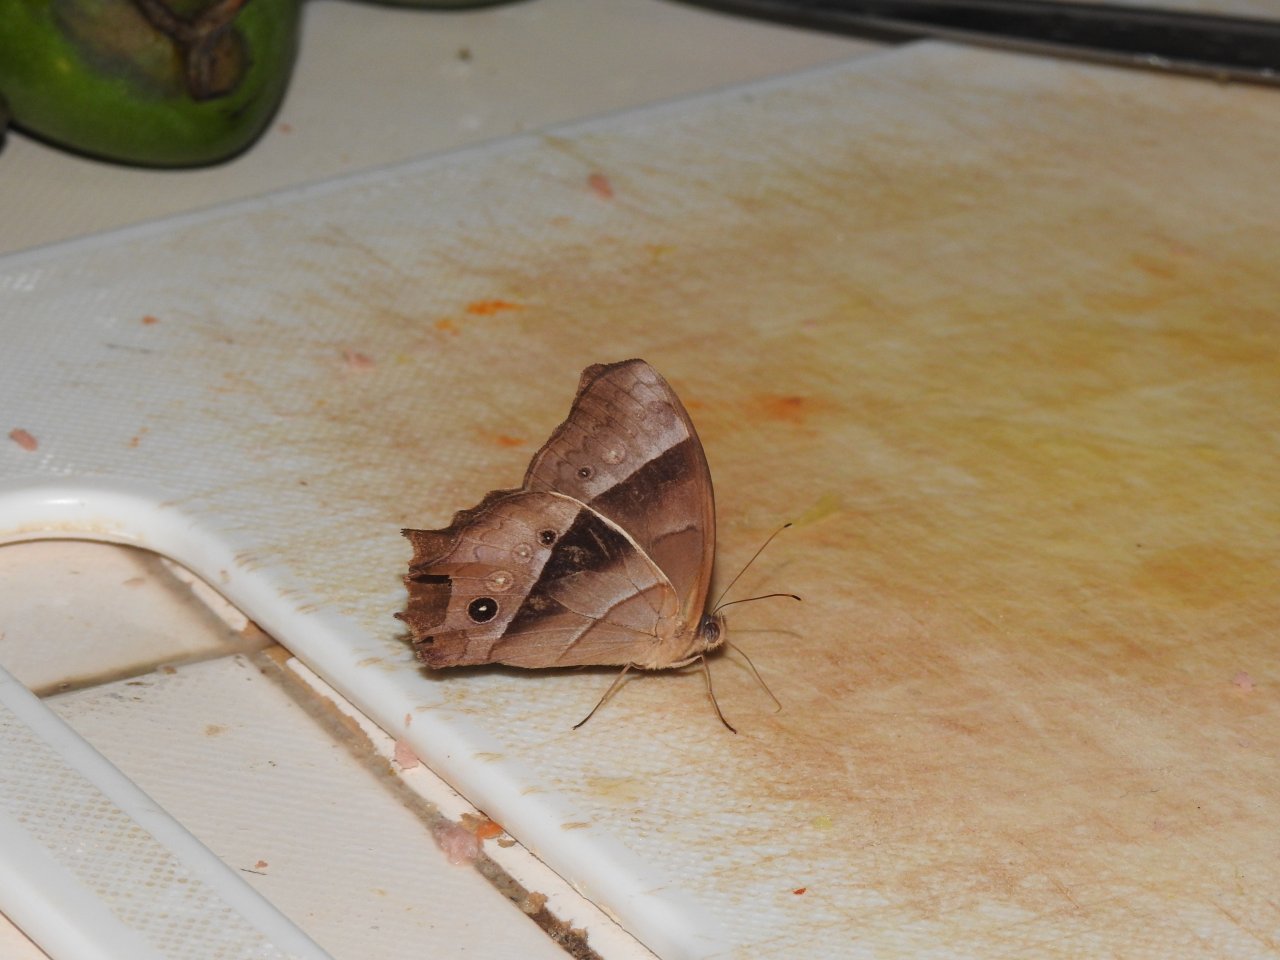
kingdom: Animalia
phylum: Arthropoda
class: Insecta
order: Lepidoptera
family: Nymphalidae
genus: Taygetis
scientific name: Taygetis andromeda
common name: Leuctra Satyr
